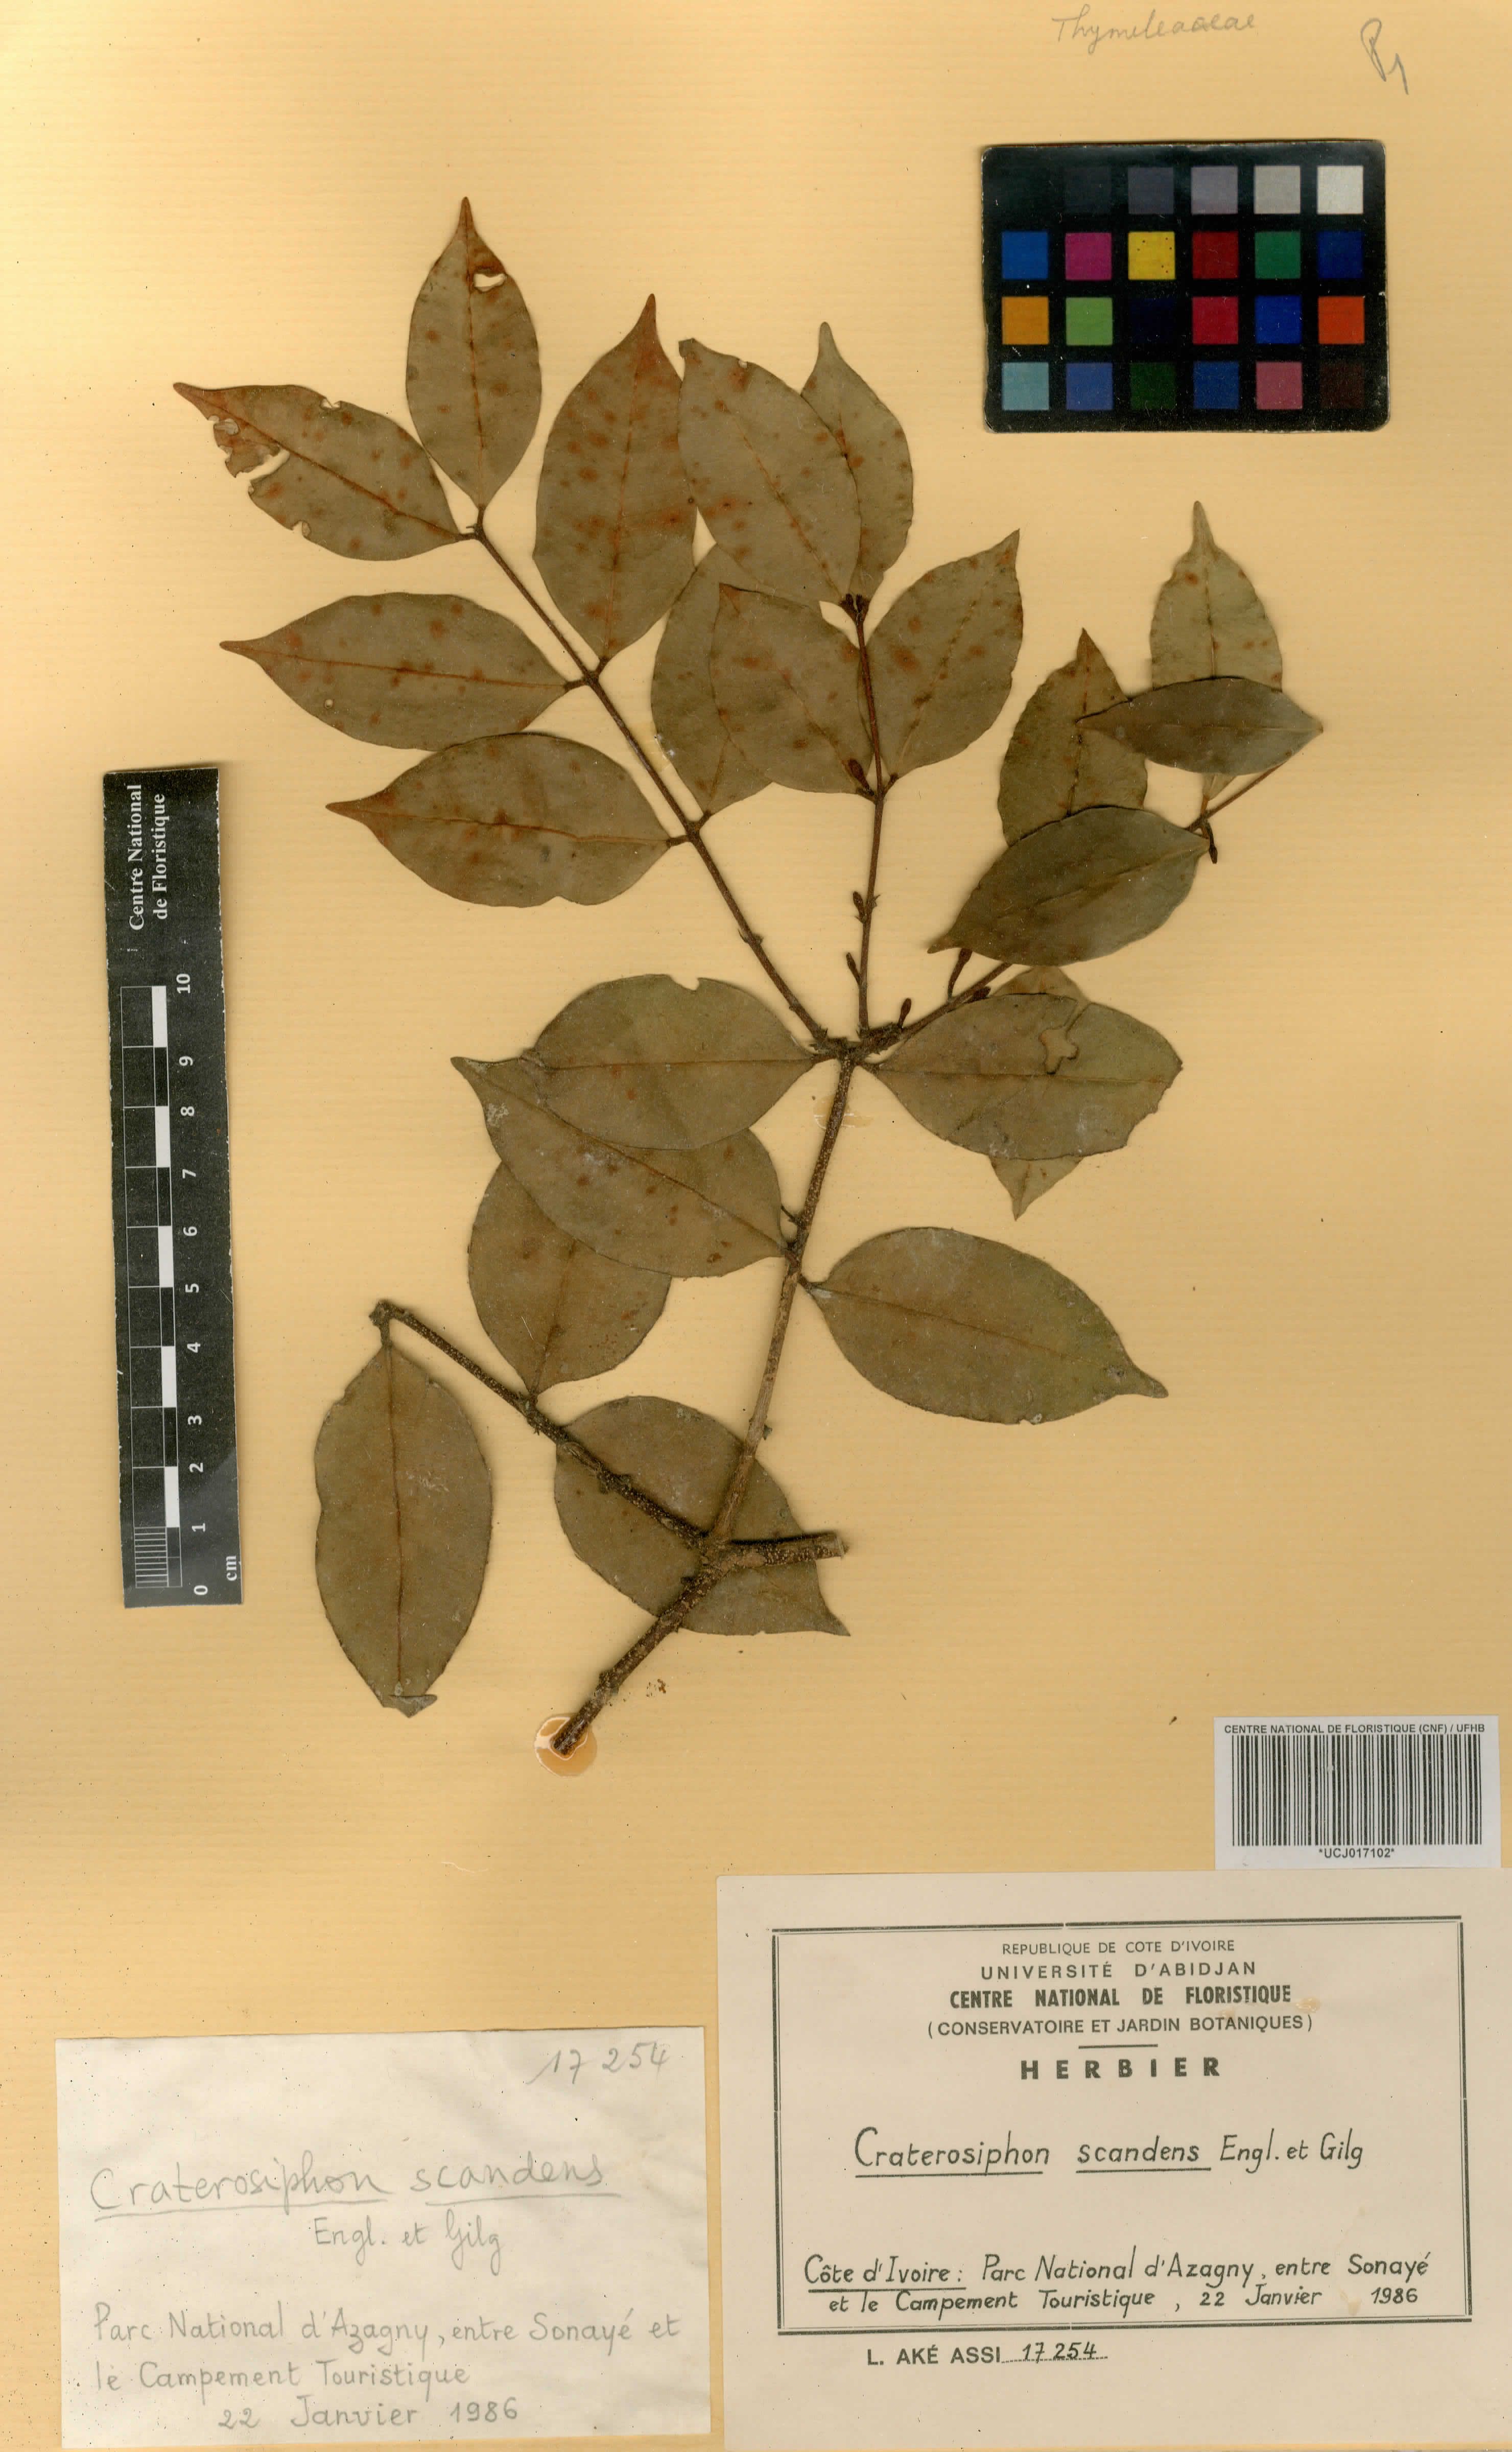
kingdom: Plantae
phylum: Tracheophyta
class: Magnoliopsida
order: Malvales
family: Thymelaeaceae
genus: Craterosiphon
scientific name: Craterosiphon scandens
